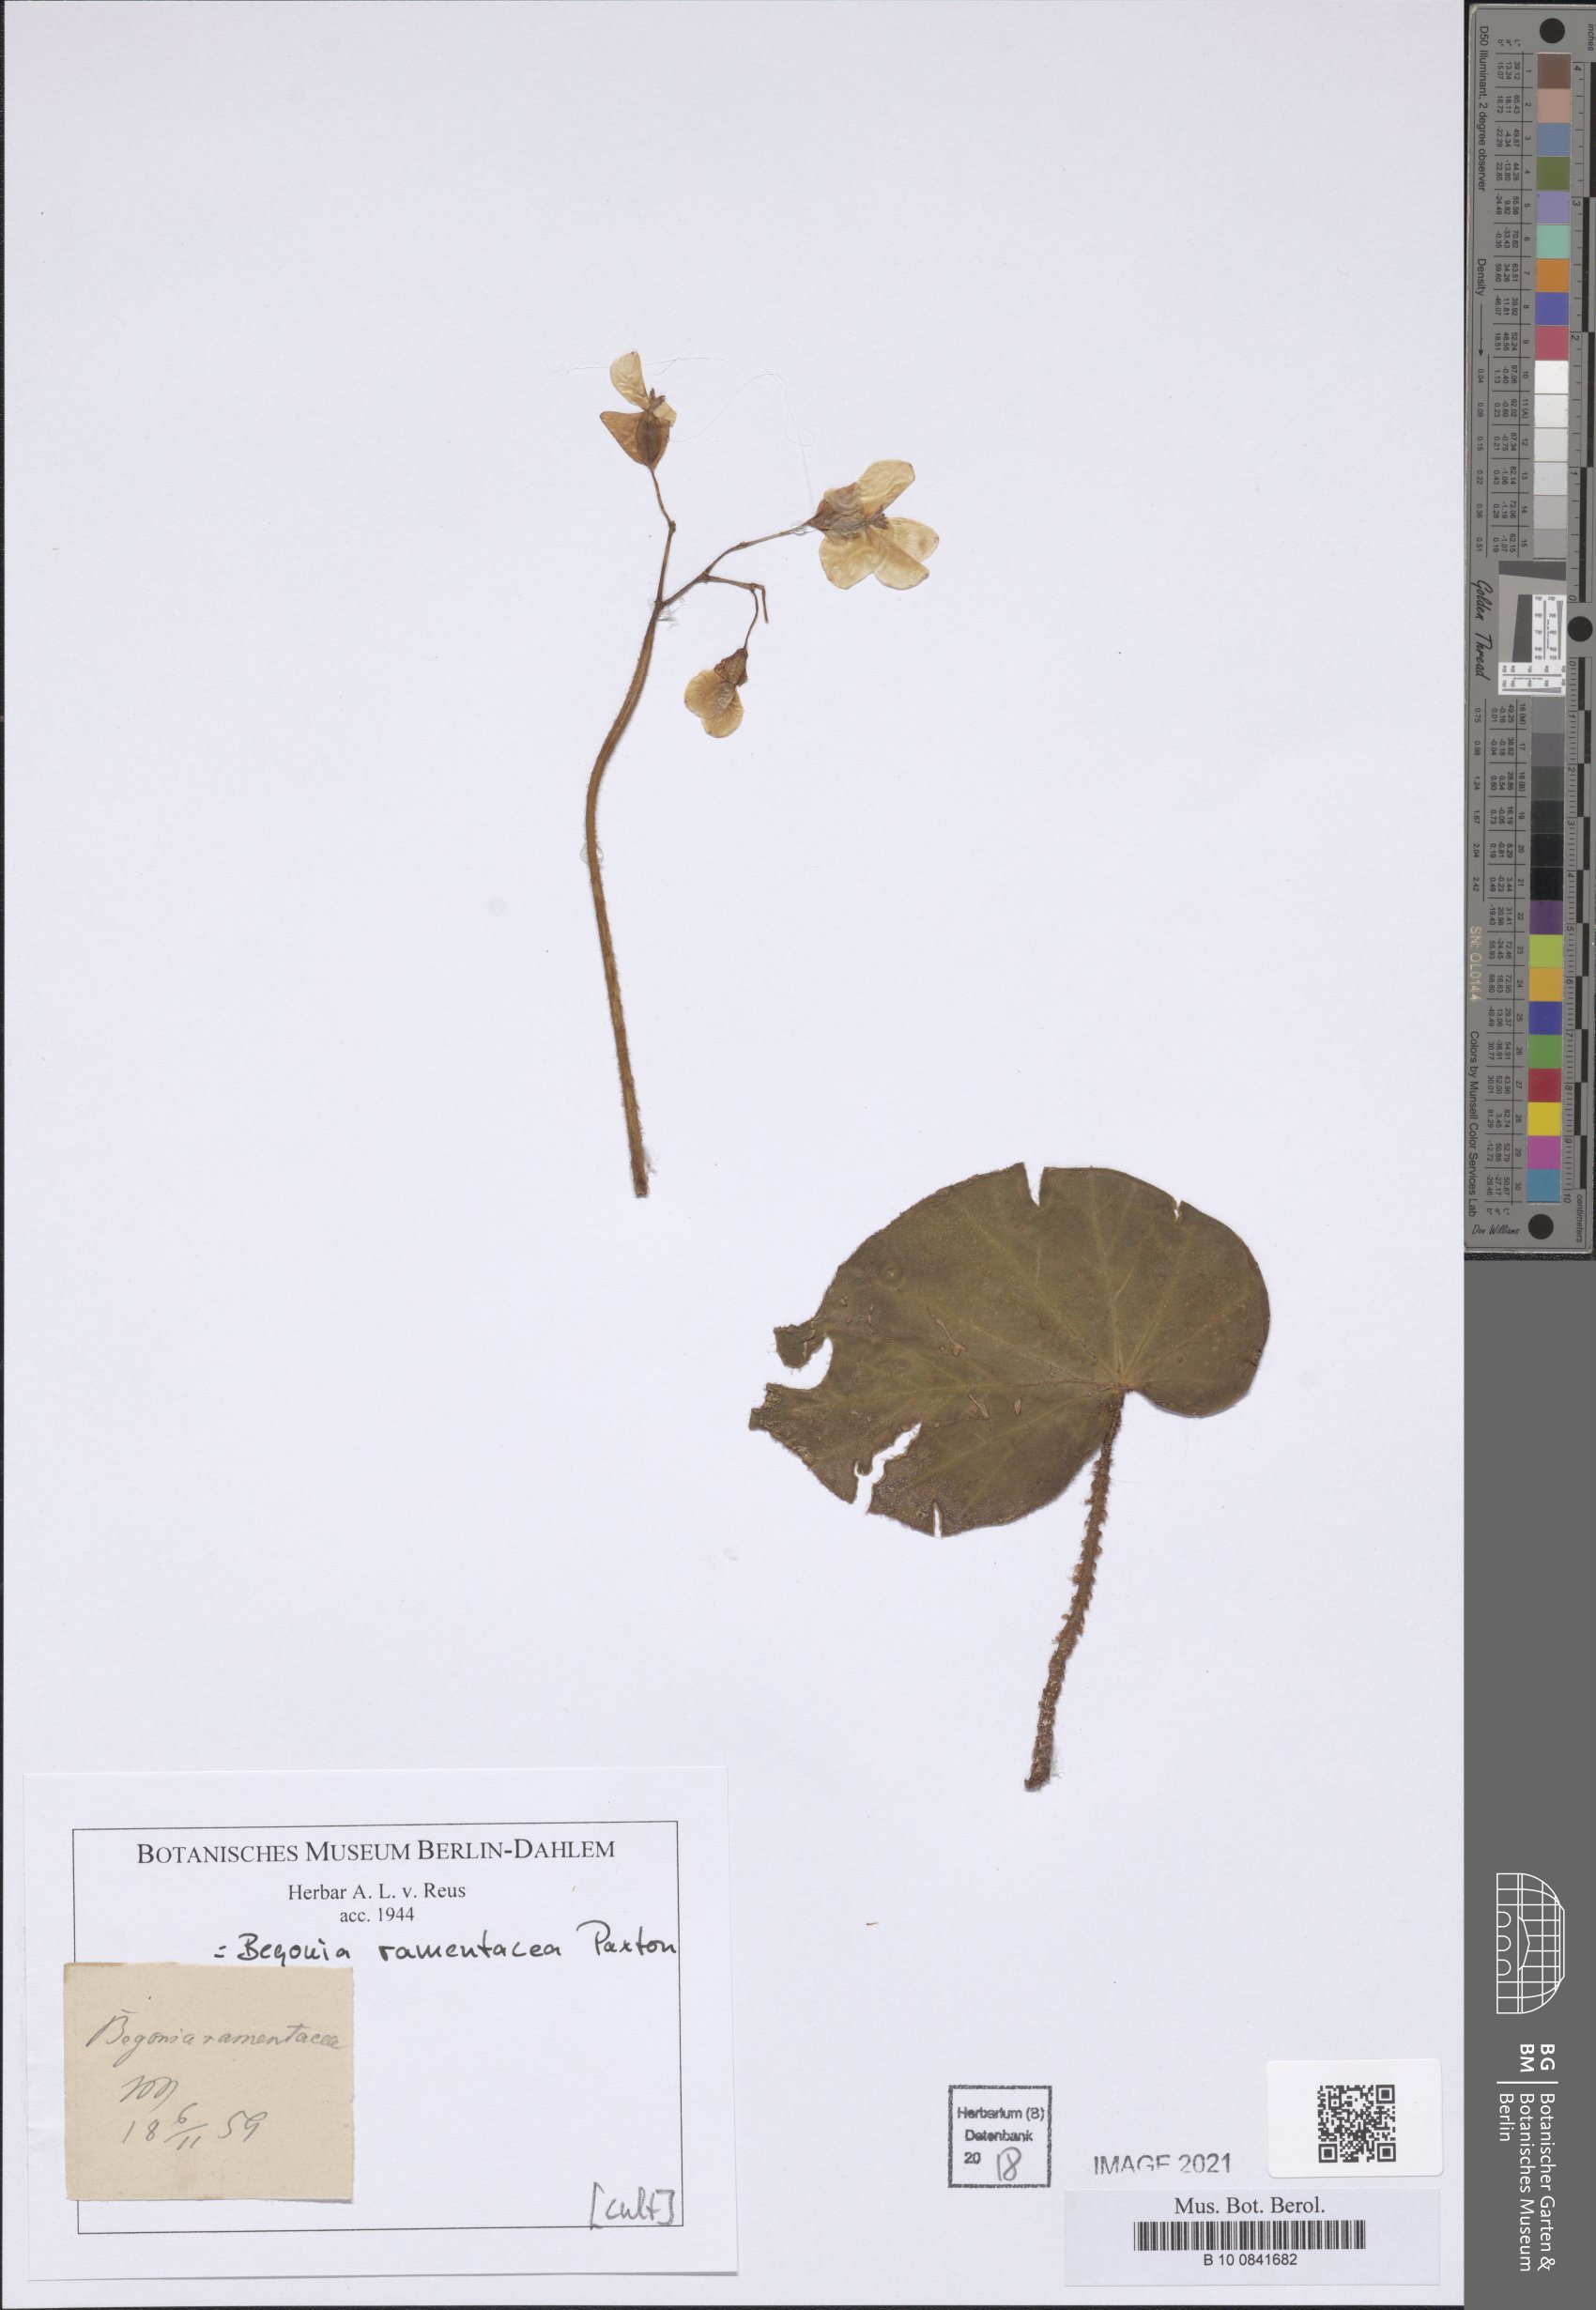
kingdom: Plantae
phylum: Tracheophyta
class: Magnoliopsida
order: Cucurbitales
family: Begoniaceae
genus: Begonia
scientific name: Begonia ramentacea
